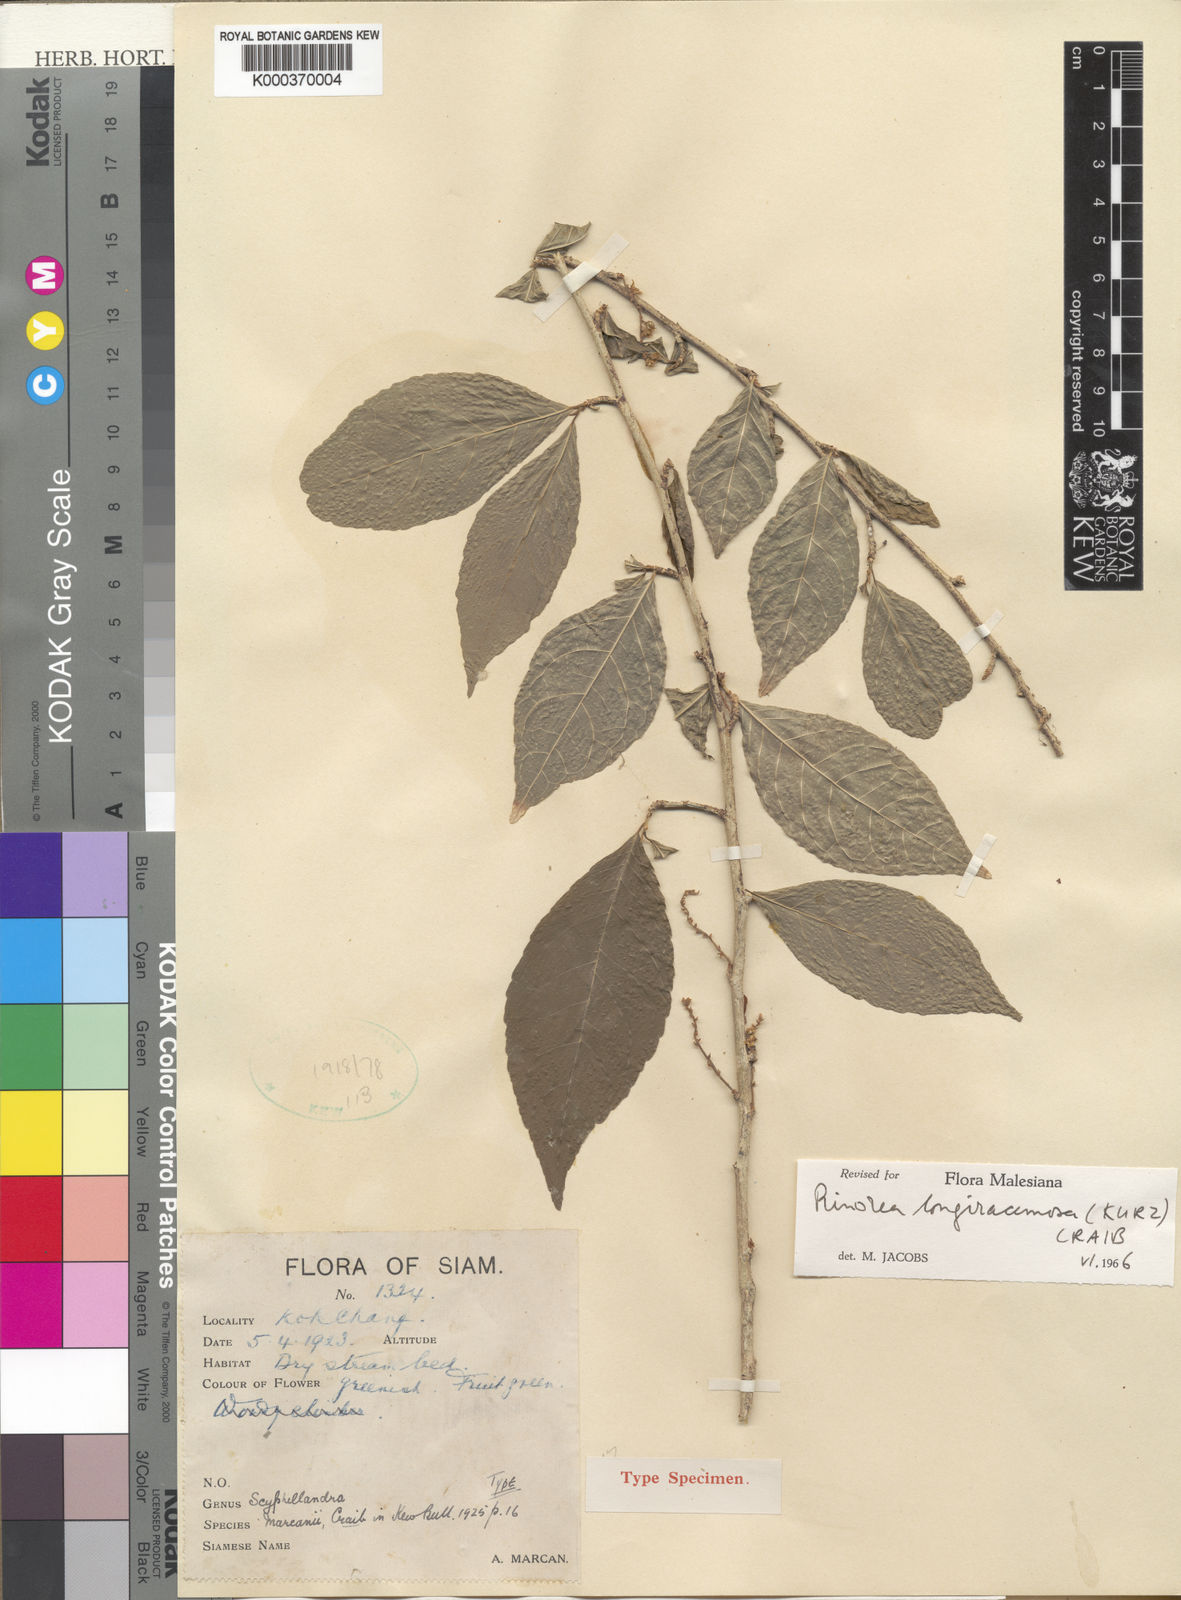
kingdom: Plantae
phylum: Tracheophyta
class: Magnoliopsida
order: Malpighiales
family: Violaceae
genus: Rinorea
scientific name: Rinorea longiracemosa
